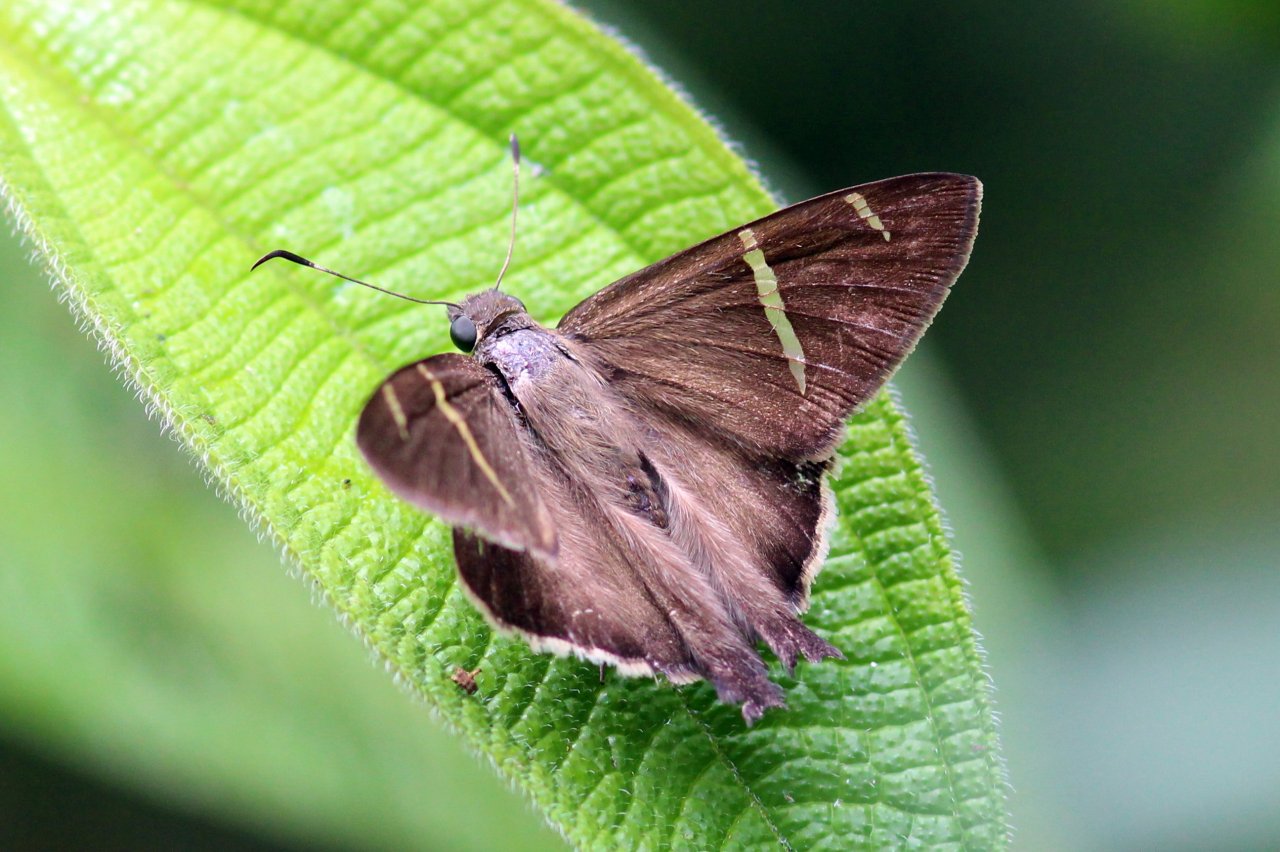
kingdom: Animalia
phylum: Arthropoda
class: Insecta
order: Lepidoptera
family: Hesperiidae
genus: Urbanus
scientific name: Urbanus tanna
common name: Tanna Longtail
